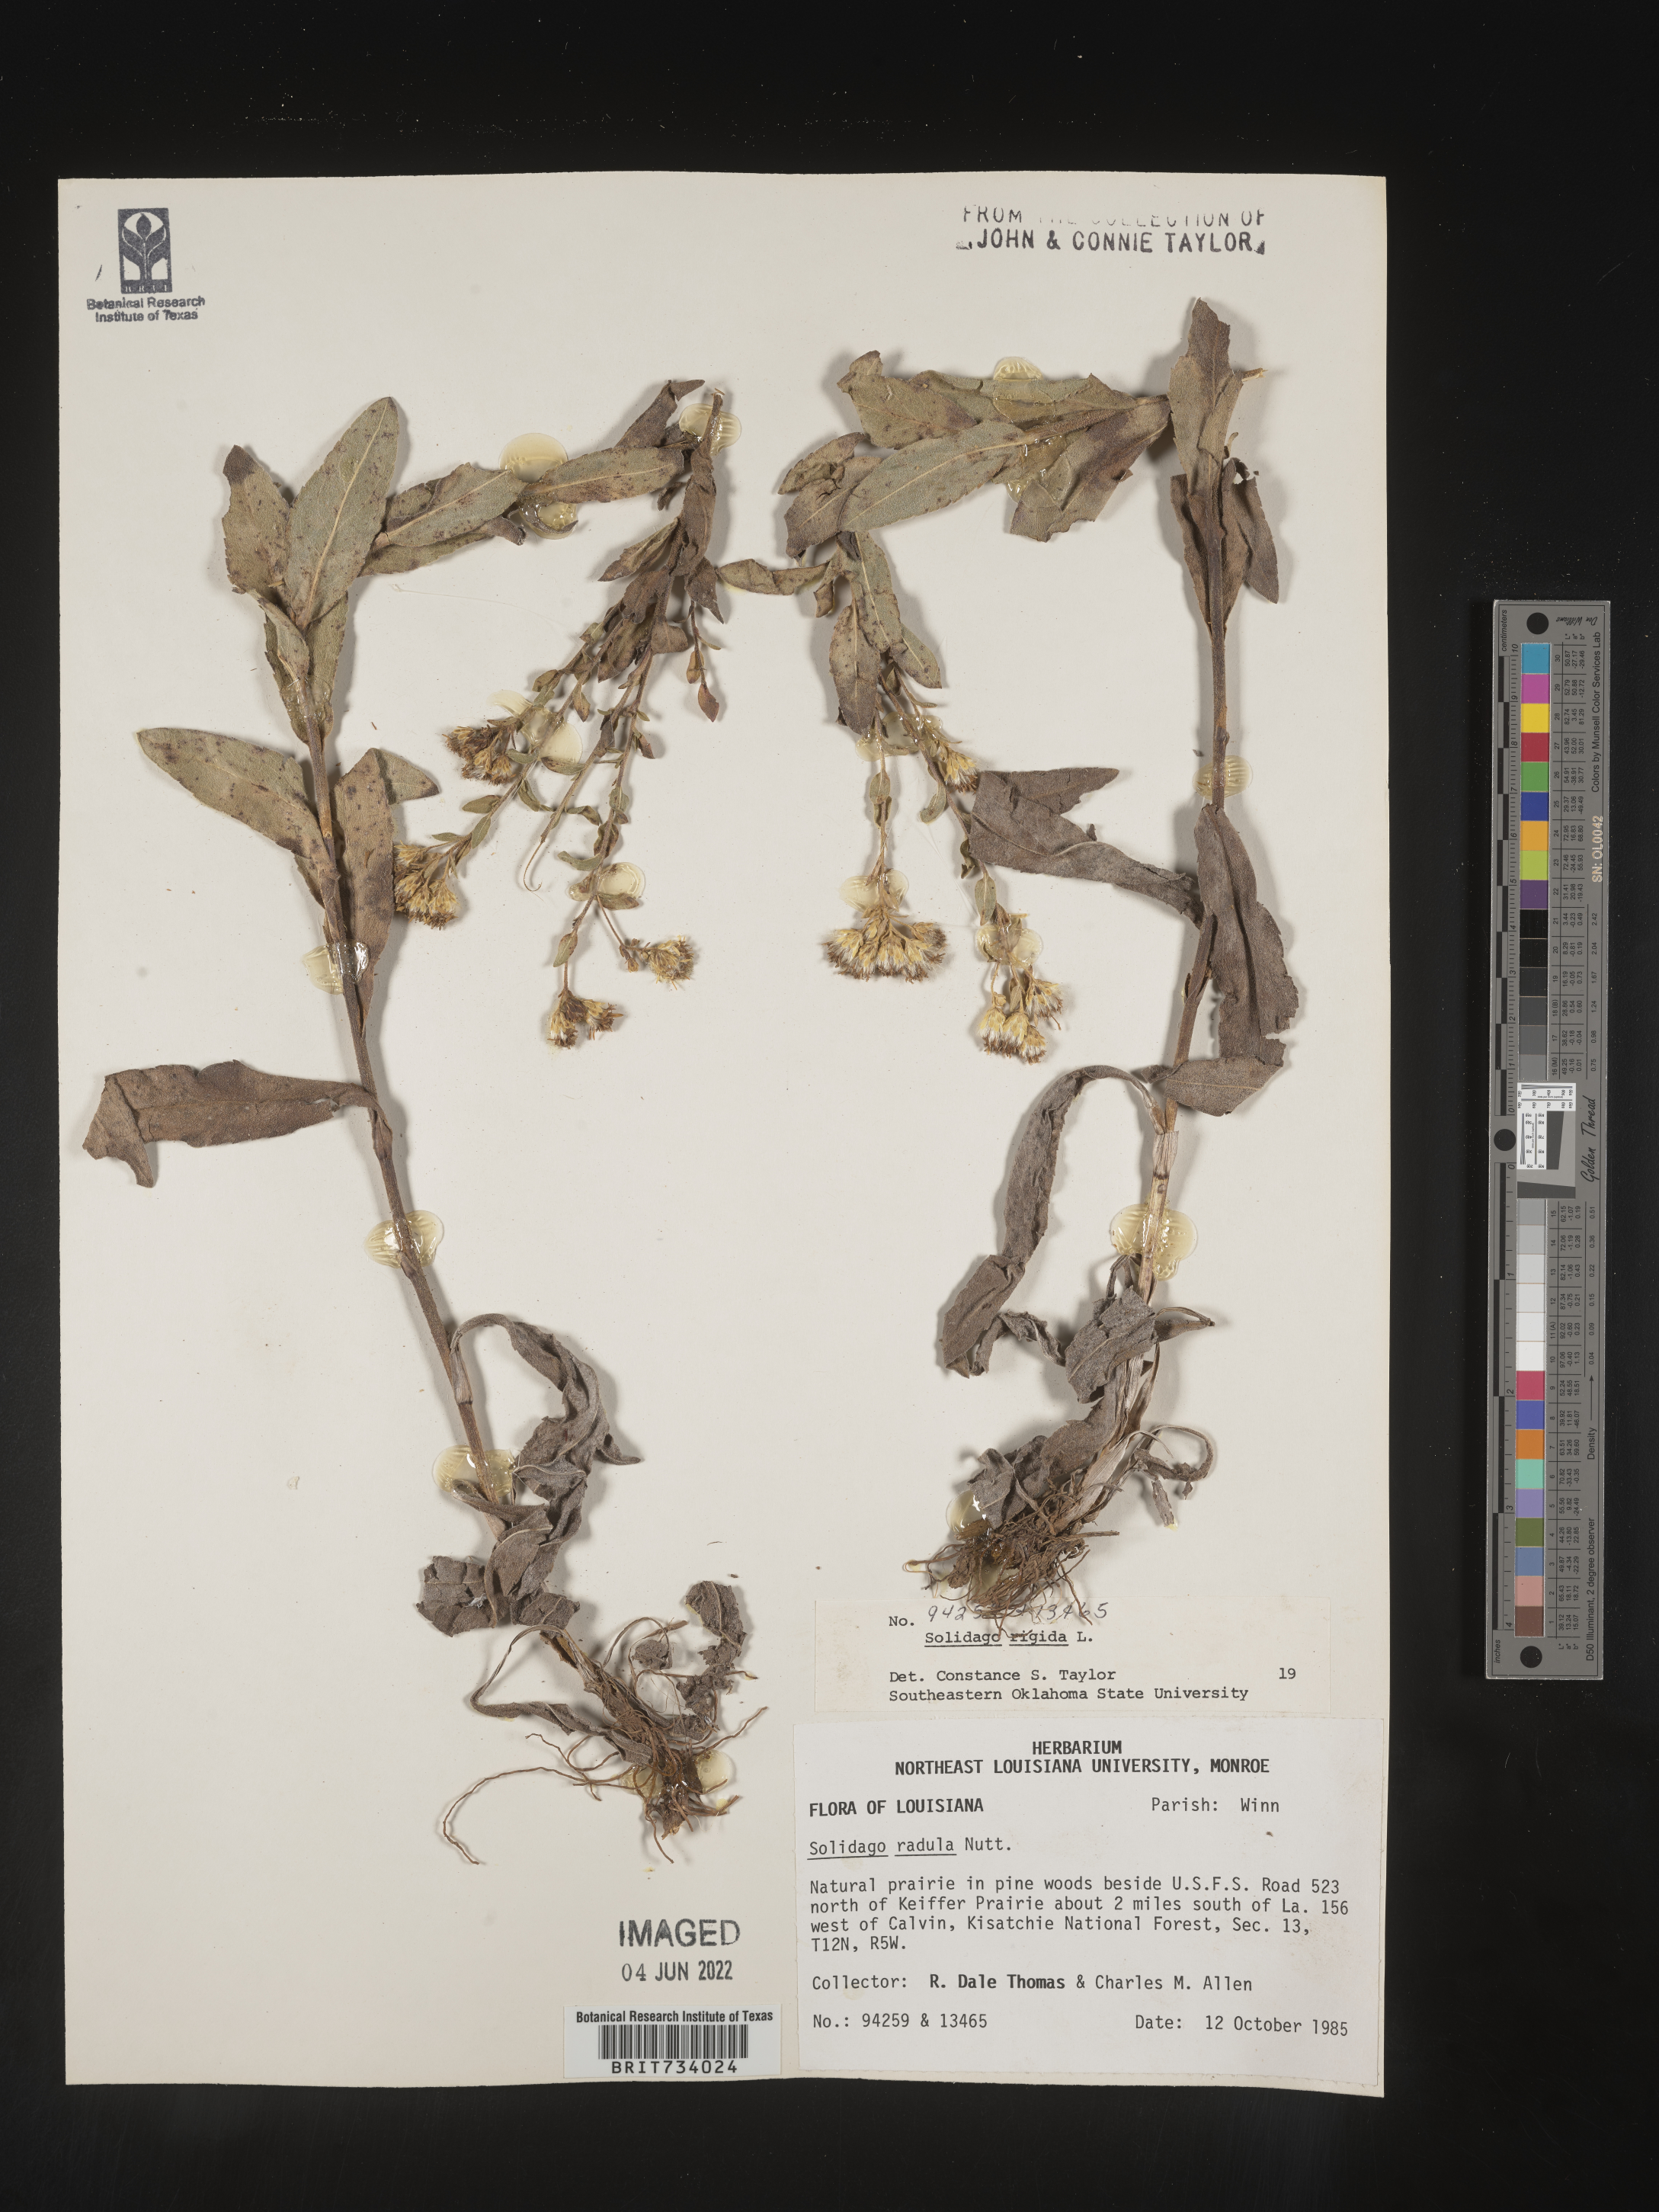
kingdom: Plantae
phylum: Tracheophyta
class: Magnoliopsida
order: Asterales
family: Asteraceae
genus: Solidago
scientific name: Solidago rigida
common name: Rigid goldenrod
